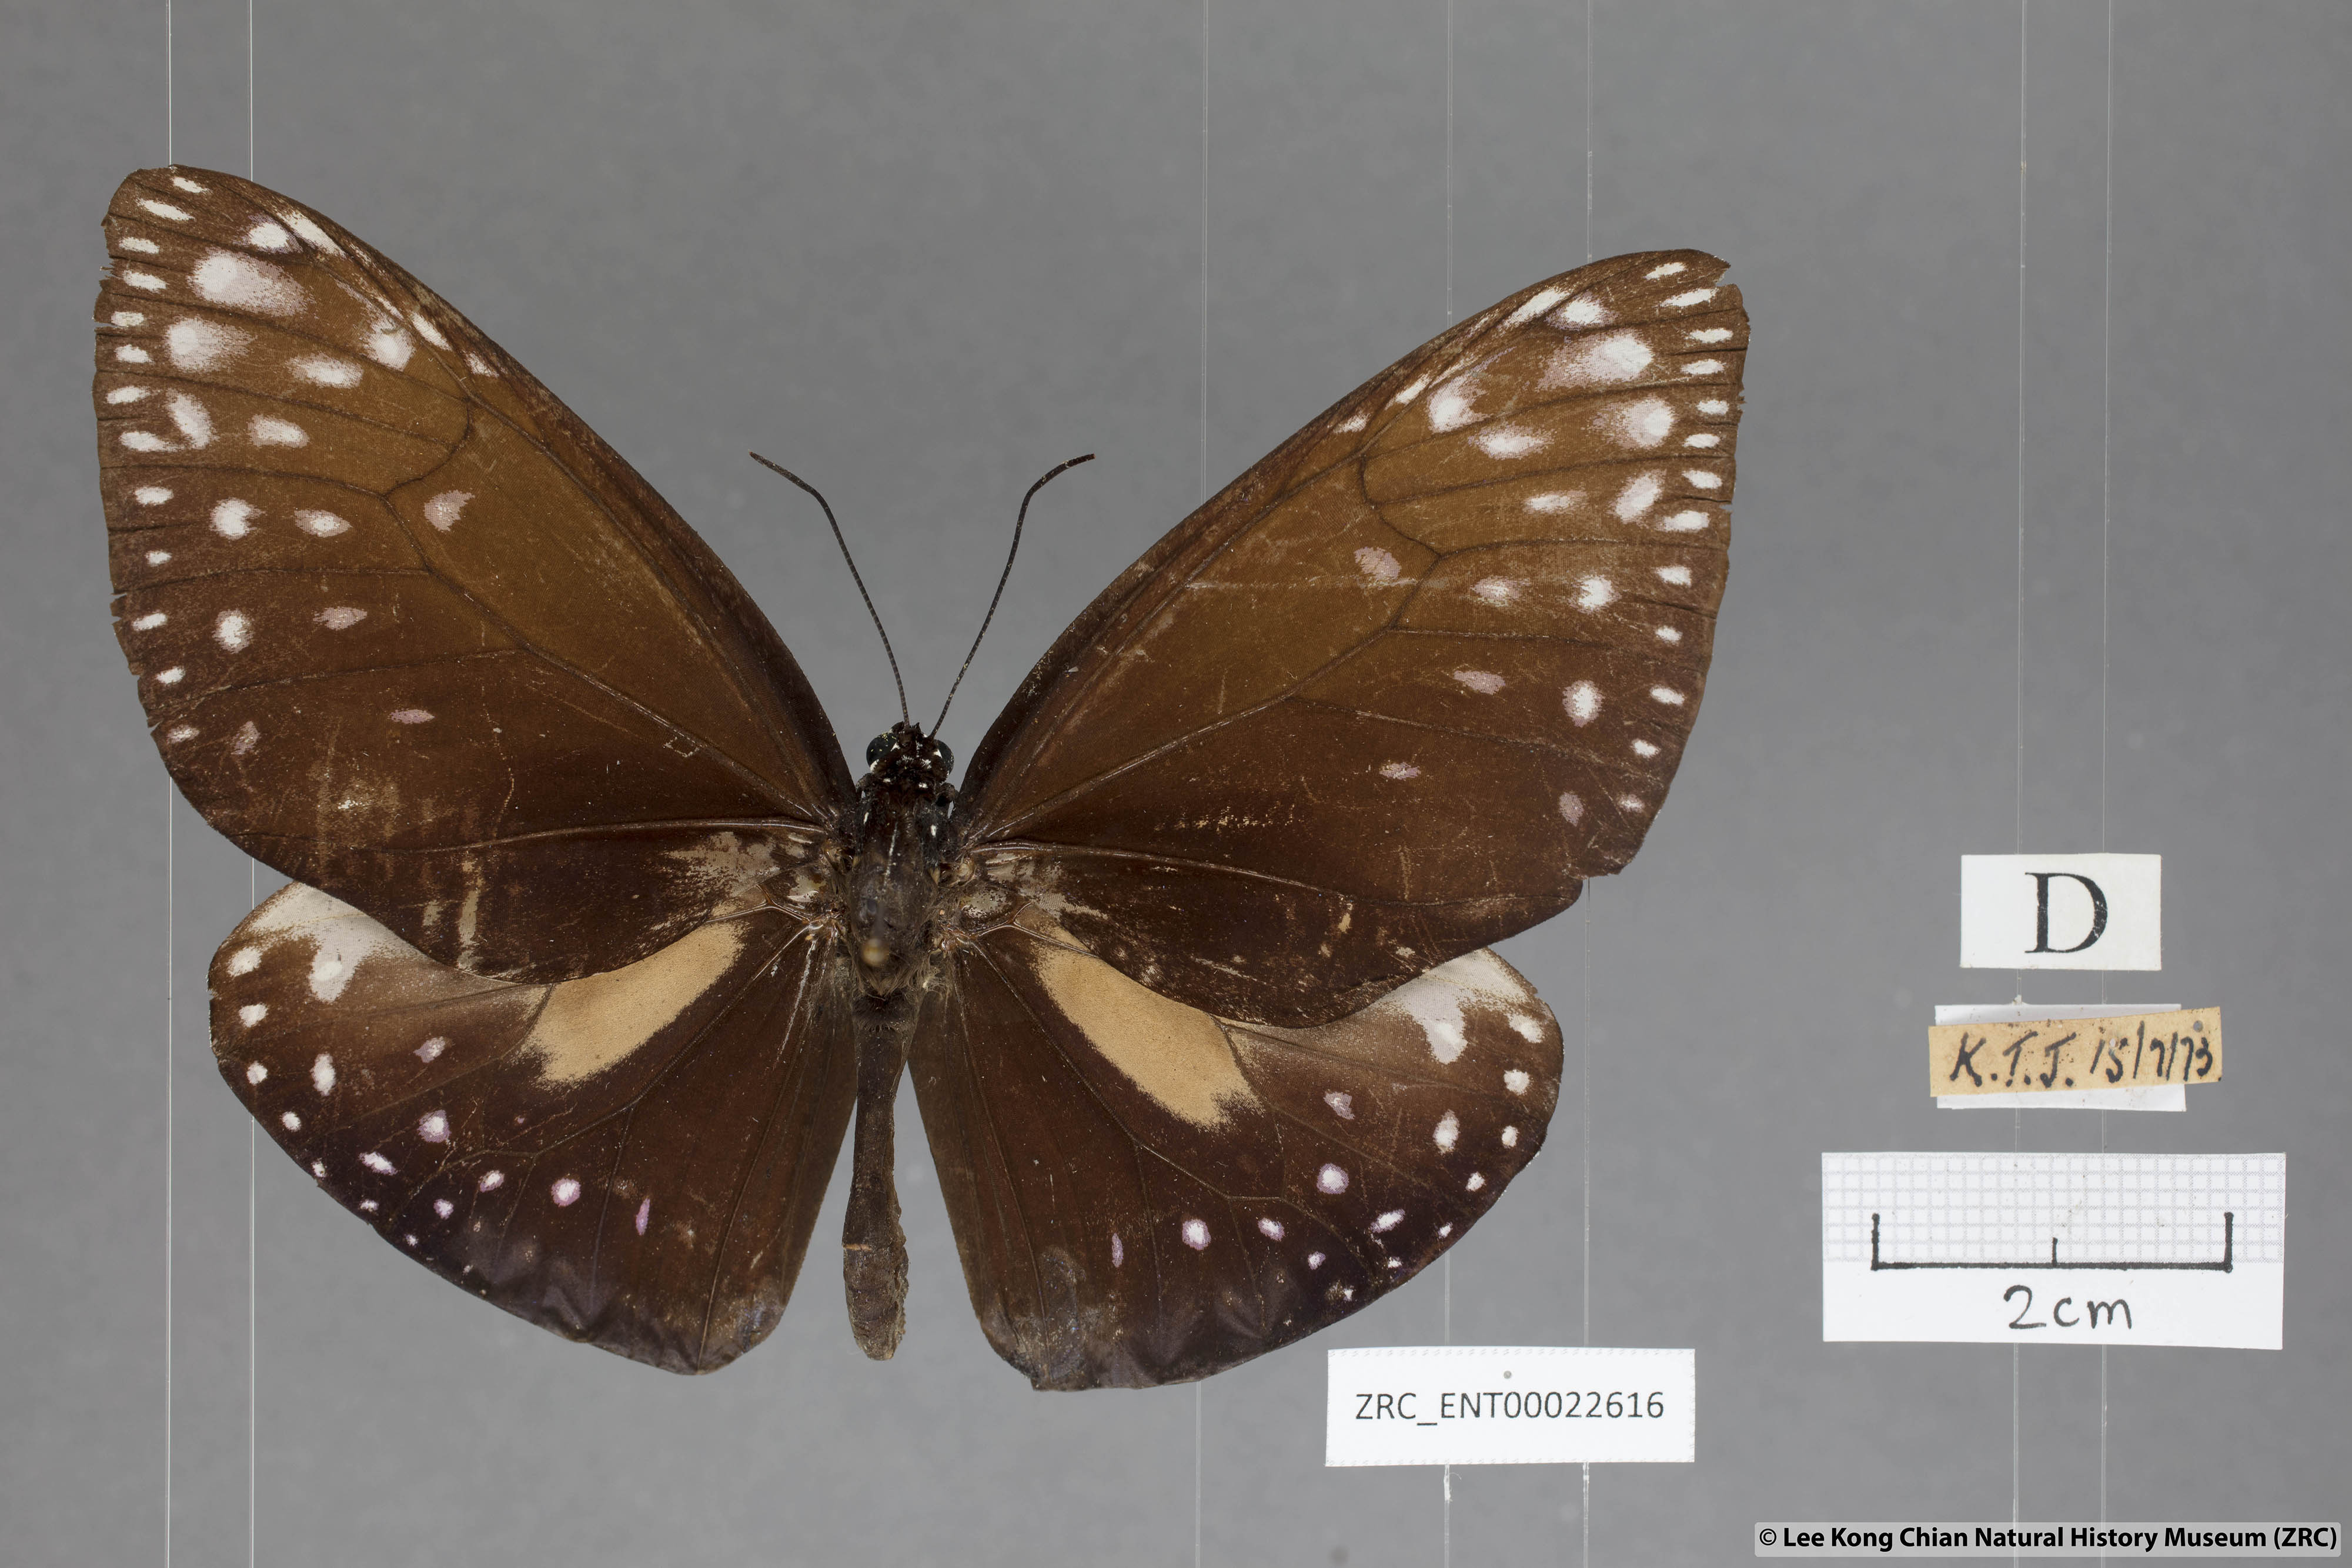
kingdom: Animalia
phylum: Arthropoda
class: Insecta
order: Lepidoptera
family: Nymphalidae
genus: Euploea
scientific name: Euploea phaenareta
